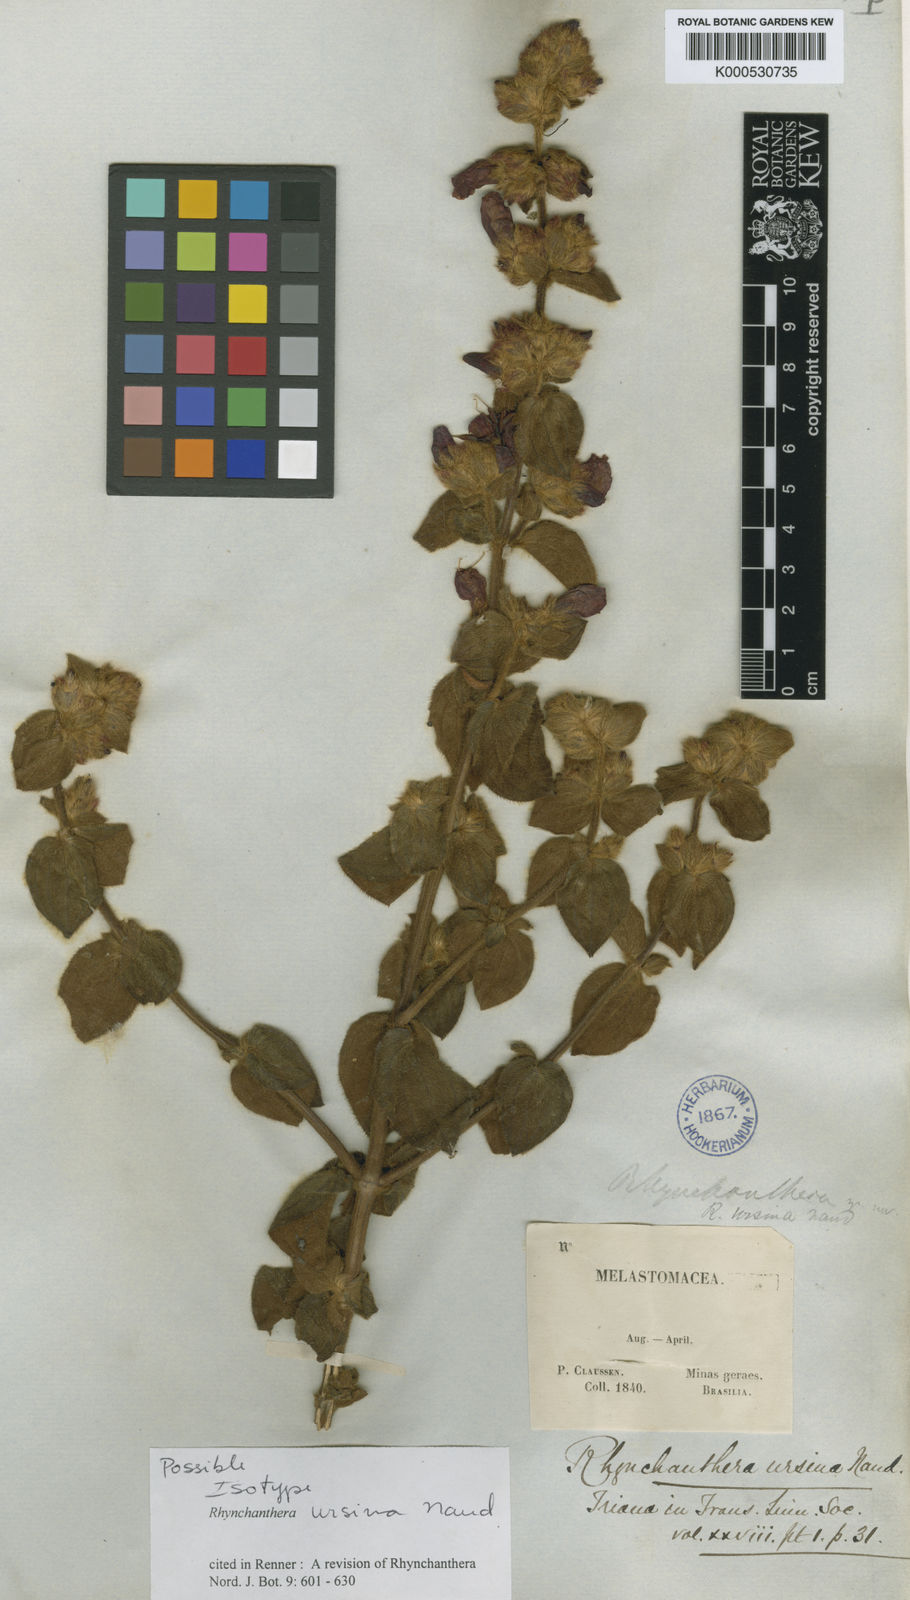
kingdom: Plantae
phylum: Tracheophyta
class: Magnoliopsida
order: Myrtales
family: Melastomataceae
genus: Rhynchanthera
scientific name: Rhynchanthera ursina
